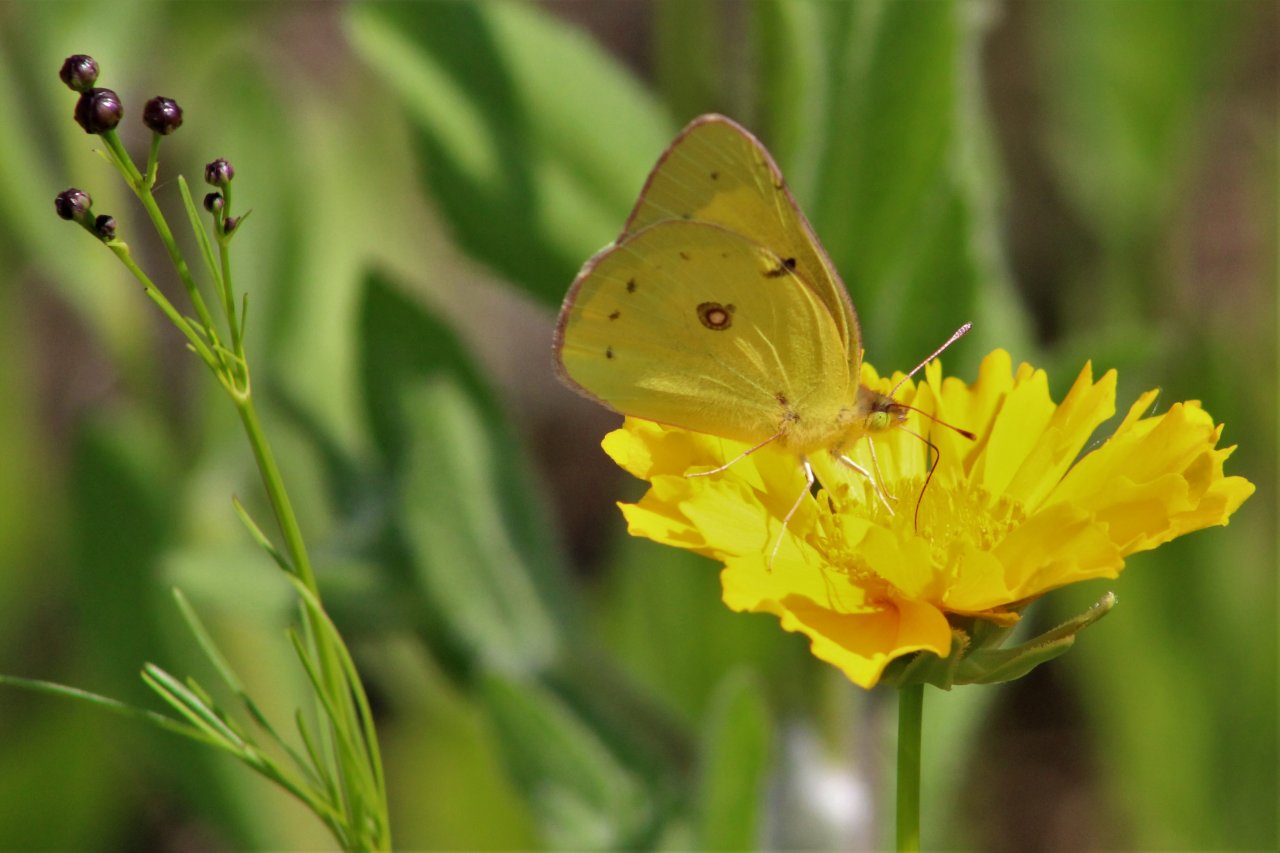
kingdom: Animalia
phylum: Arthropoda
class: Insecta
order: Lepidoptera
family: Pieridae
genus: Colias
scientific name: Colias philodice
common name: Clouded Sulphur
